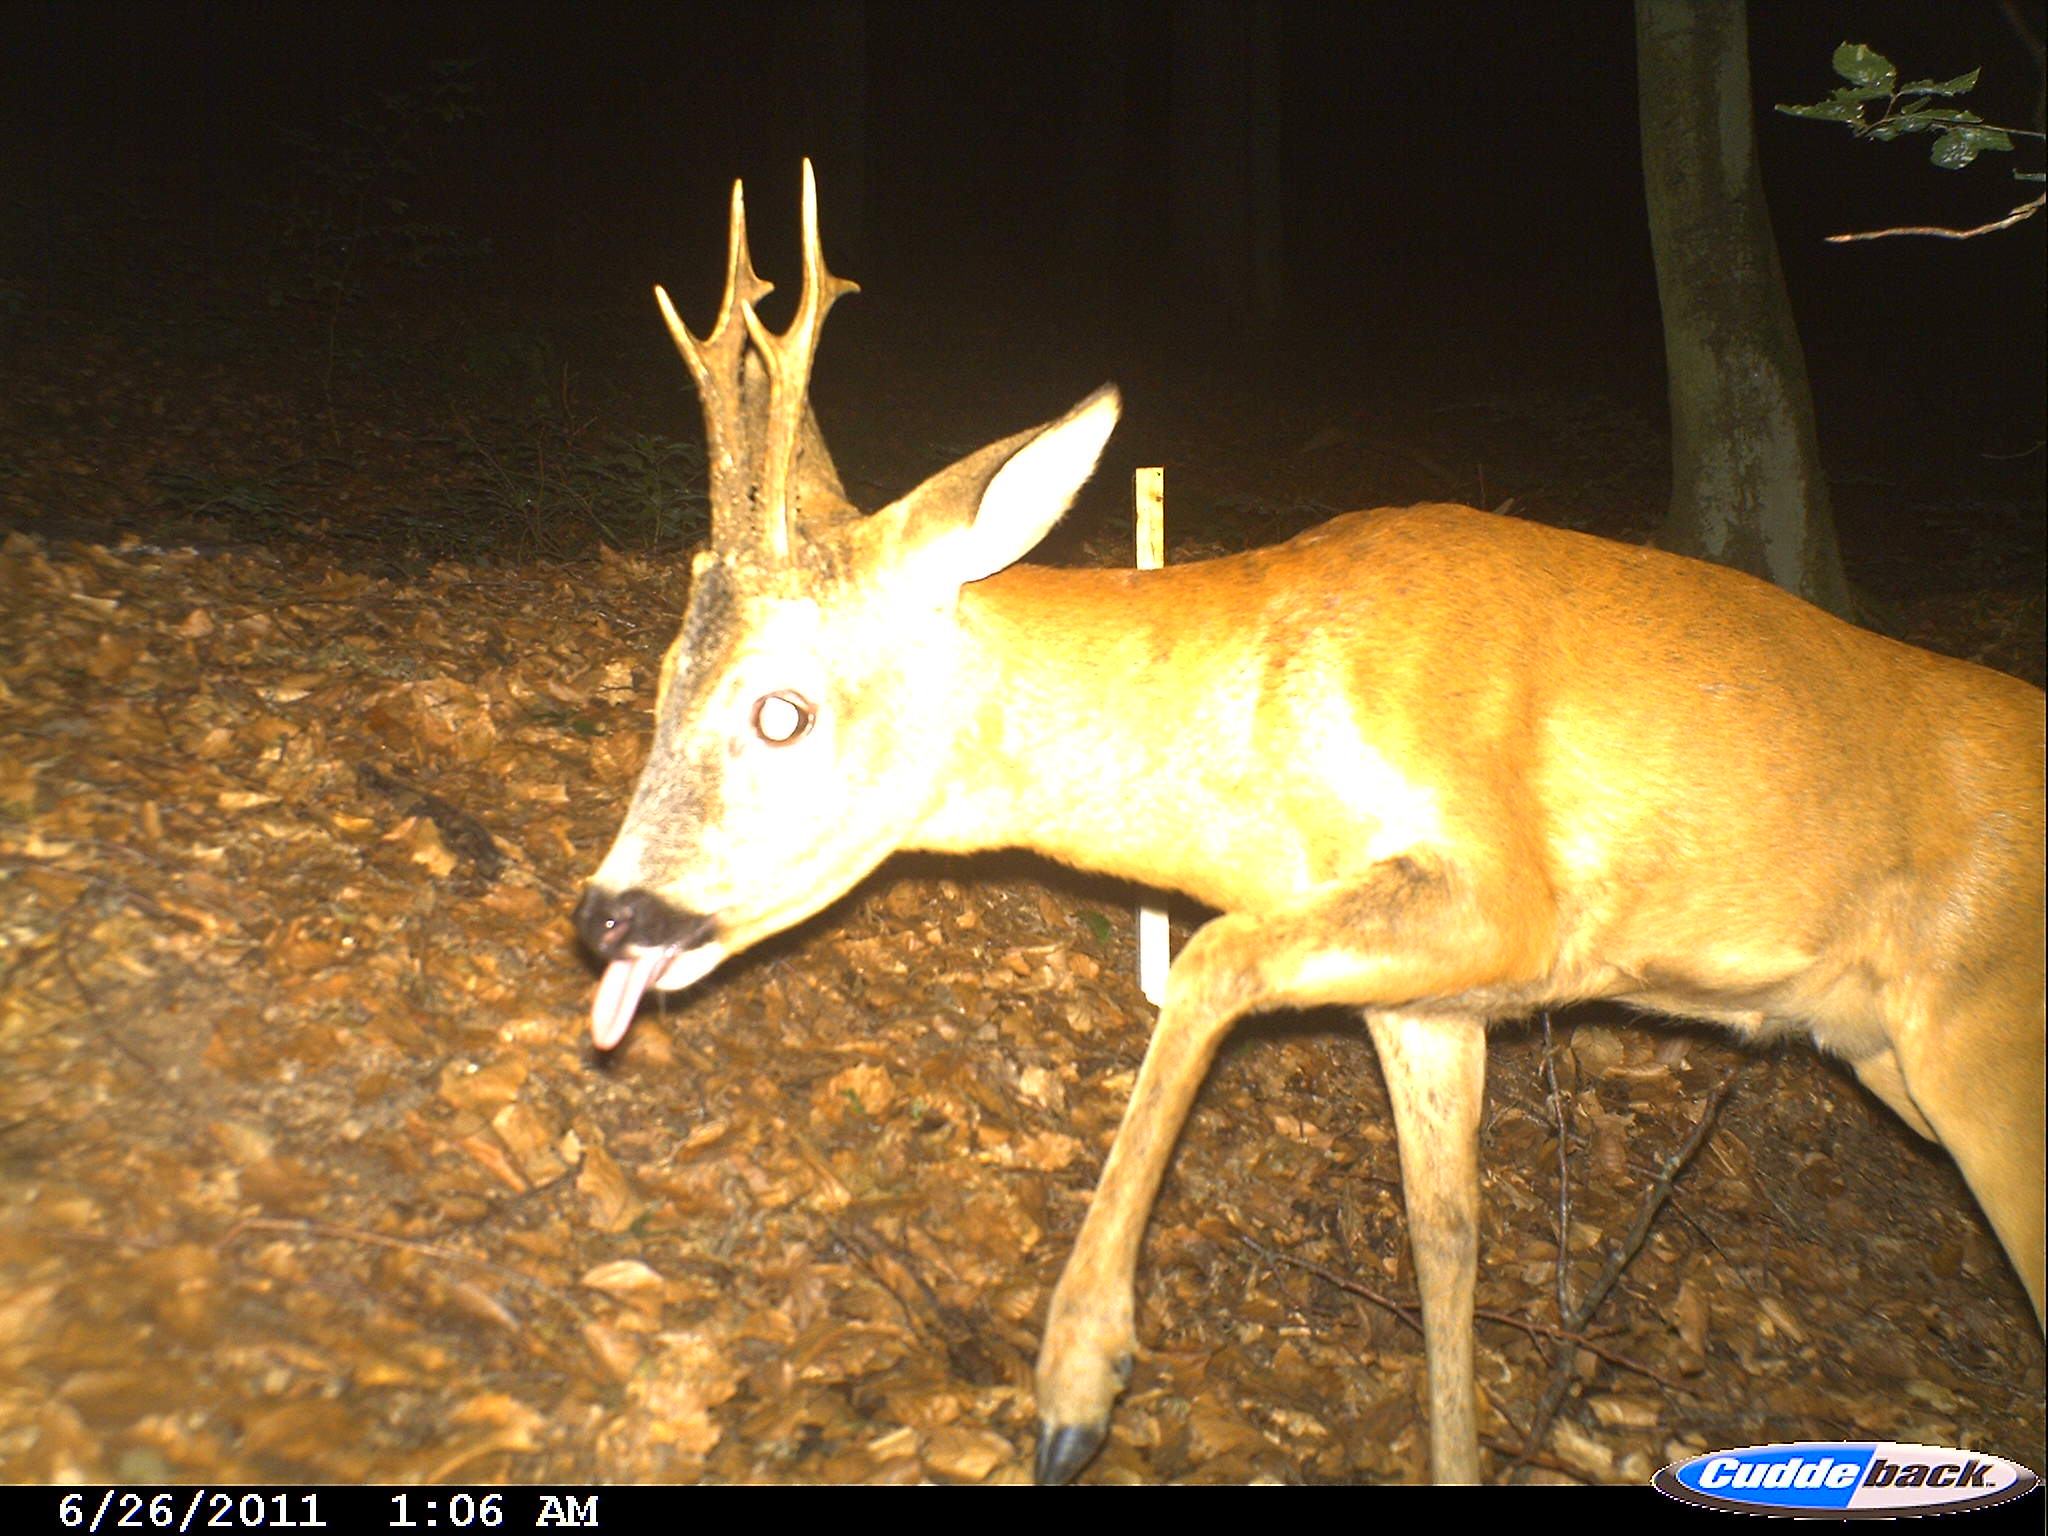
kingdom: Animalia
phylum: Chordata
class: Mammalia
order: Artiodactyla
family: Cervidae
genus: Capreolus
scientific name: Capreolus capreolus
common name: Western roe deer
